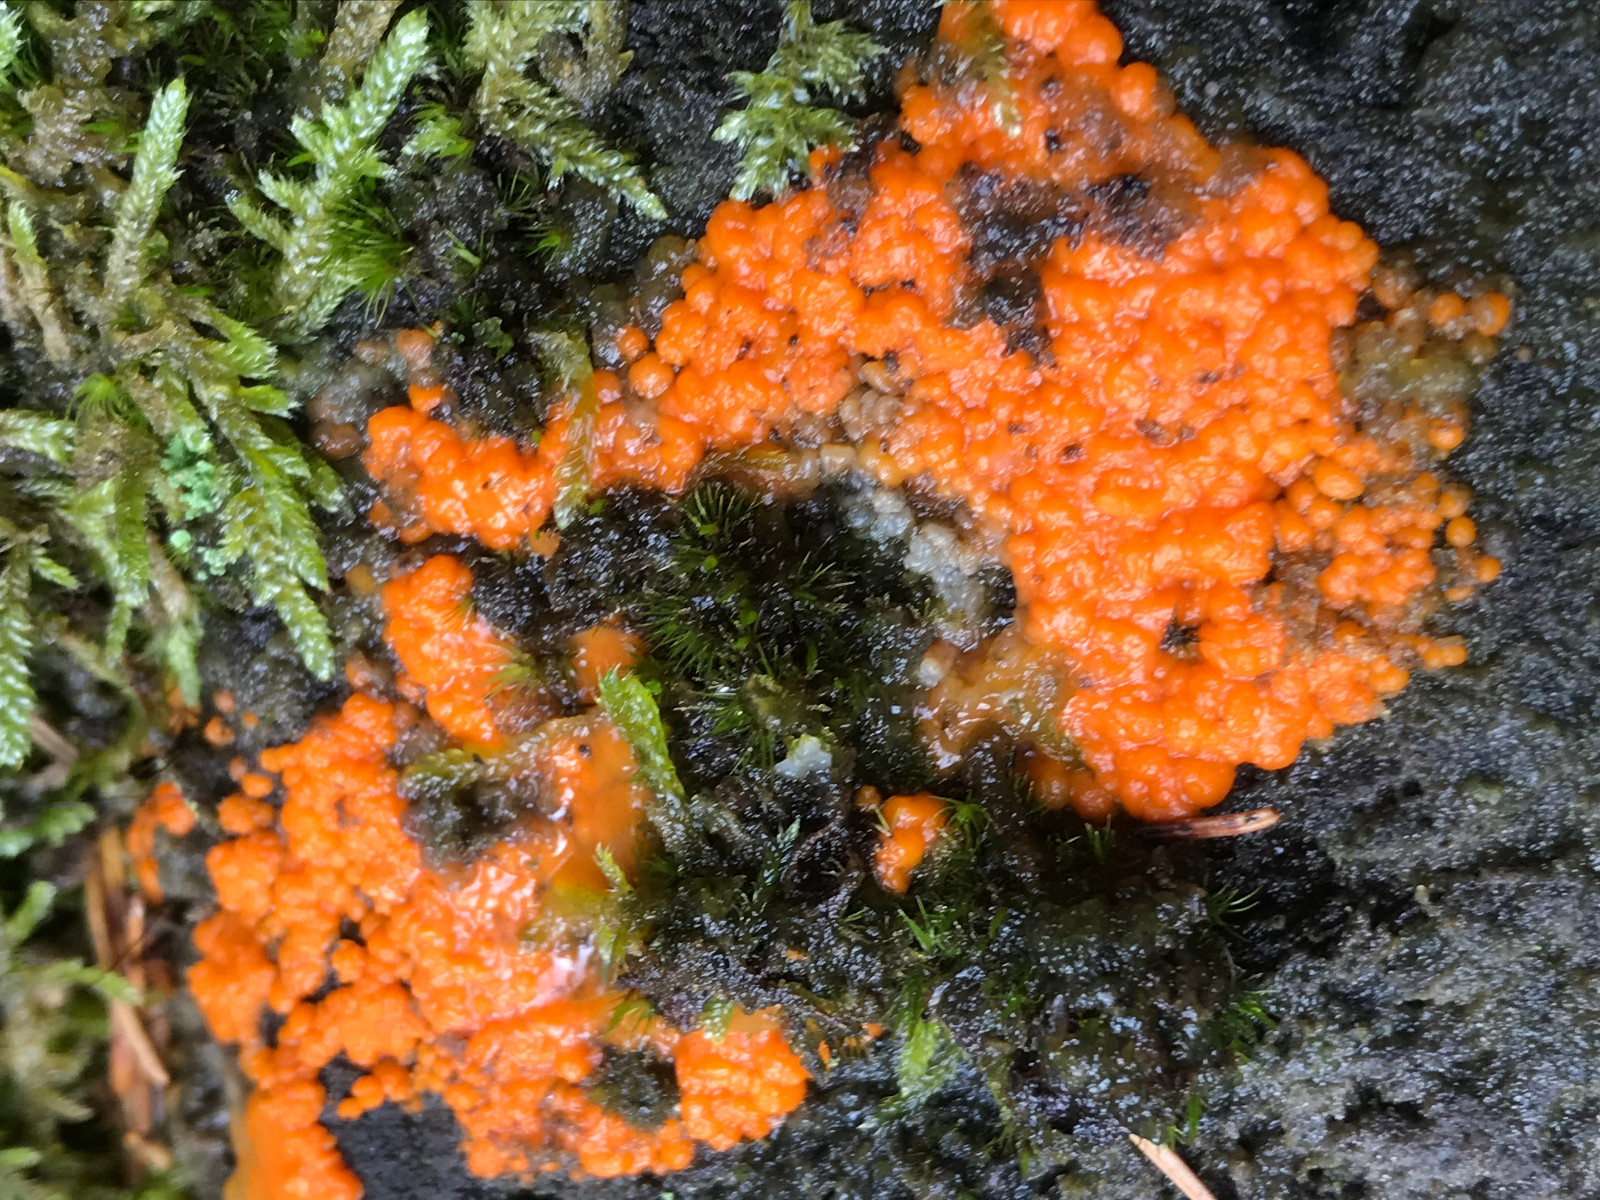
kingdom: Fungi
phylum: Basidiomycota
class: Dacrymycetes
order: Dacrymycetales
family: Dacrymycetaceae
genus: Dacrymyces
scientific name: Dacrymyces stillatus
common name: almindelig tåresvamp
